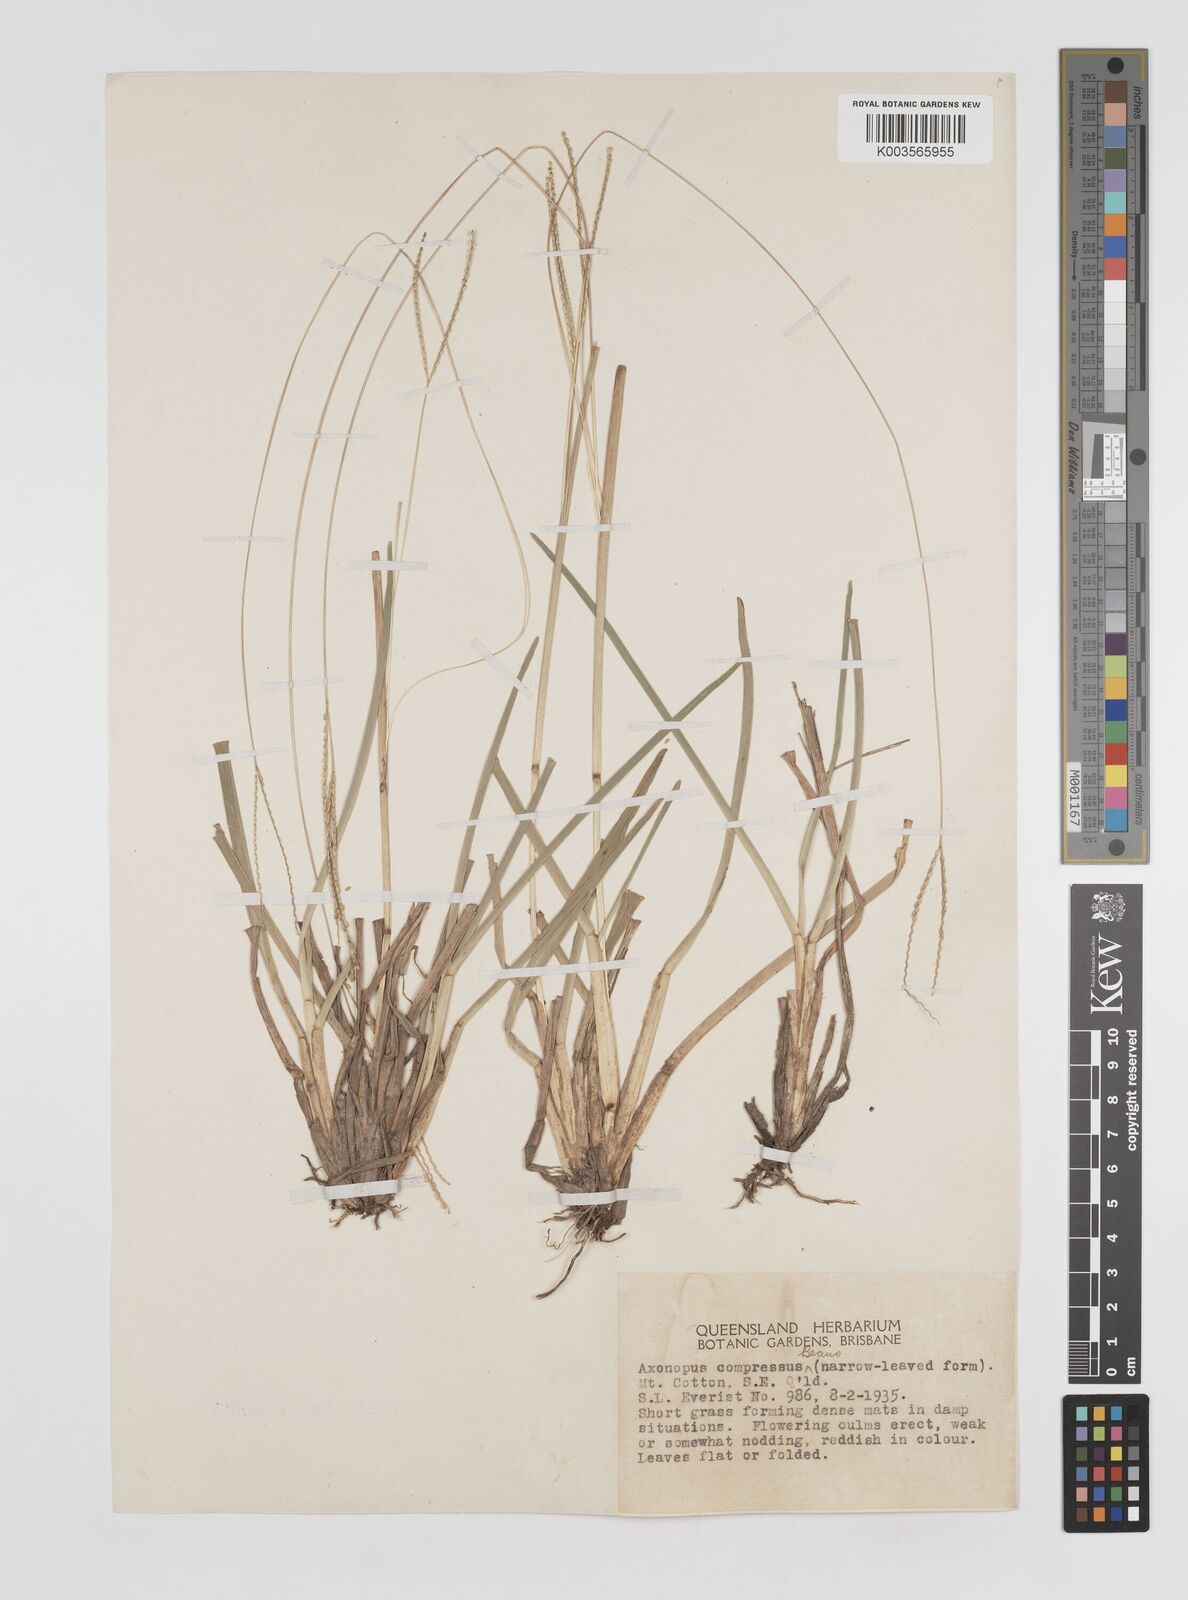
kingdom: Plantae
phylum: Tracheophyta
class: Liliopsida
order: Poales
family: Poaceae
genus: Axonopus
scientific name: Axonopus fissifolius
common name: Common carpetgrass
